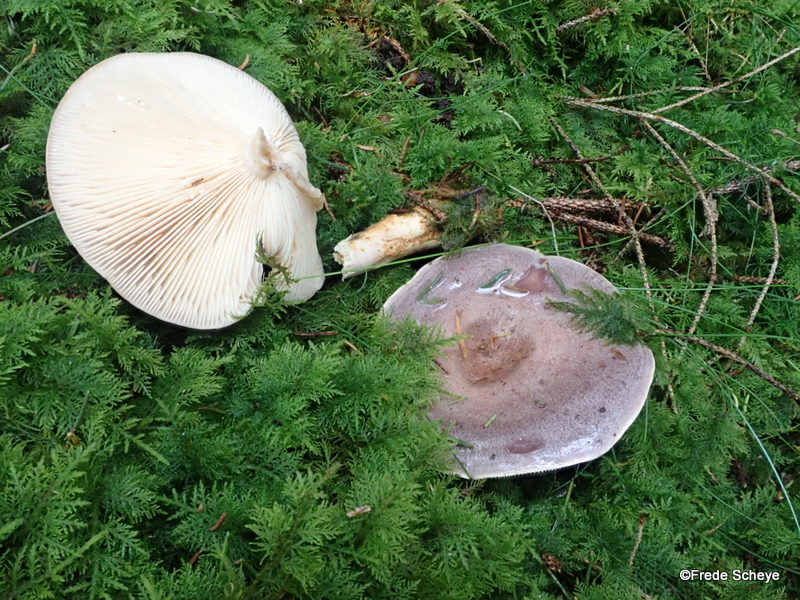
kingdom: Fungi
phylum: Basidiomycota
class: Agaricomycetes
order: Russulales
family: Russulaceae
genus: Lactarius
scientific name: Lactarius trivialis
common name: nordisk mælkehat
